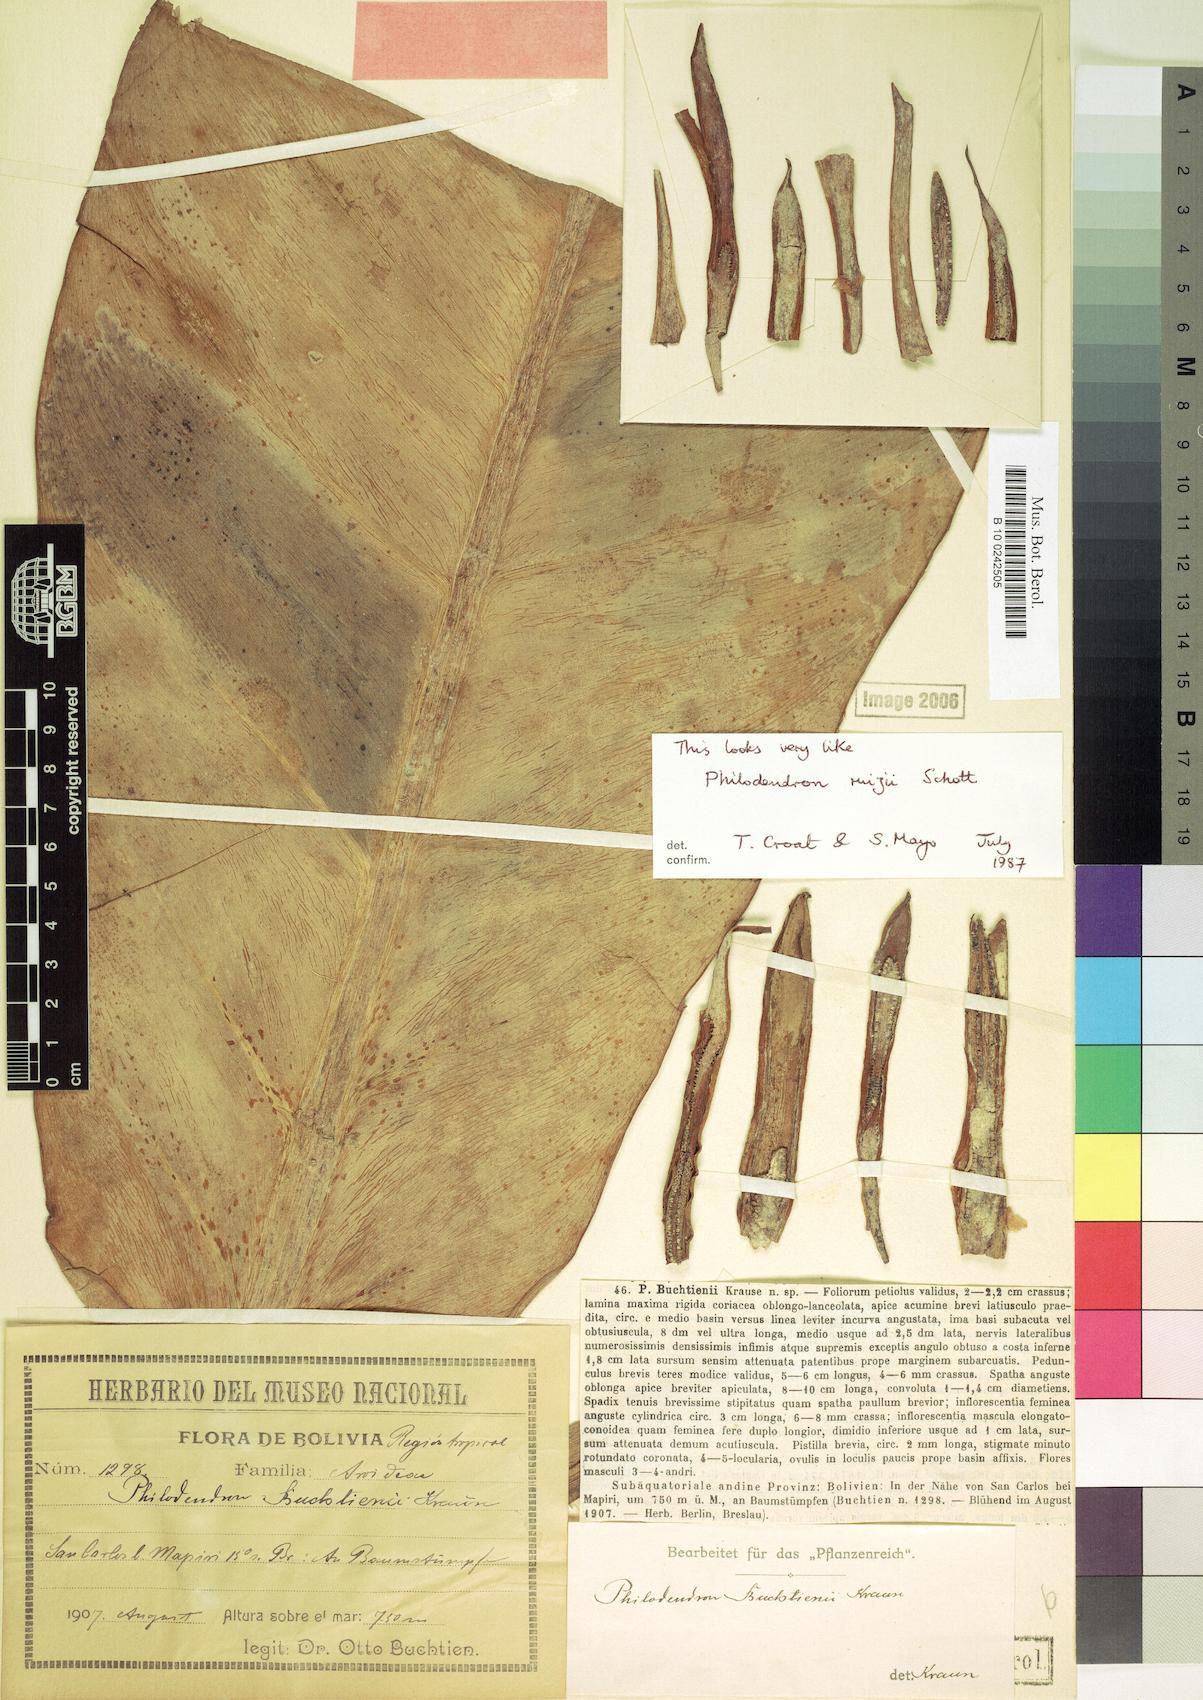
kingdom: Plantae
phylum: Tracheophyta
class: Liliopsida
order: Alismatales
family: Araceae
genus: Philodendron
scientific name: Philodendron ruizii
